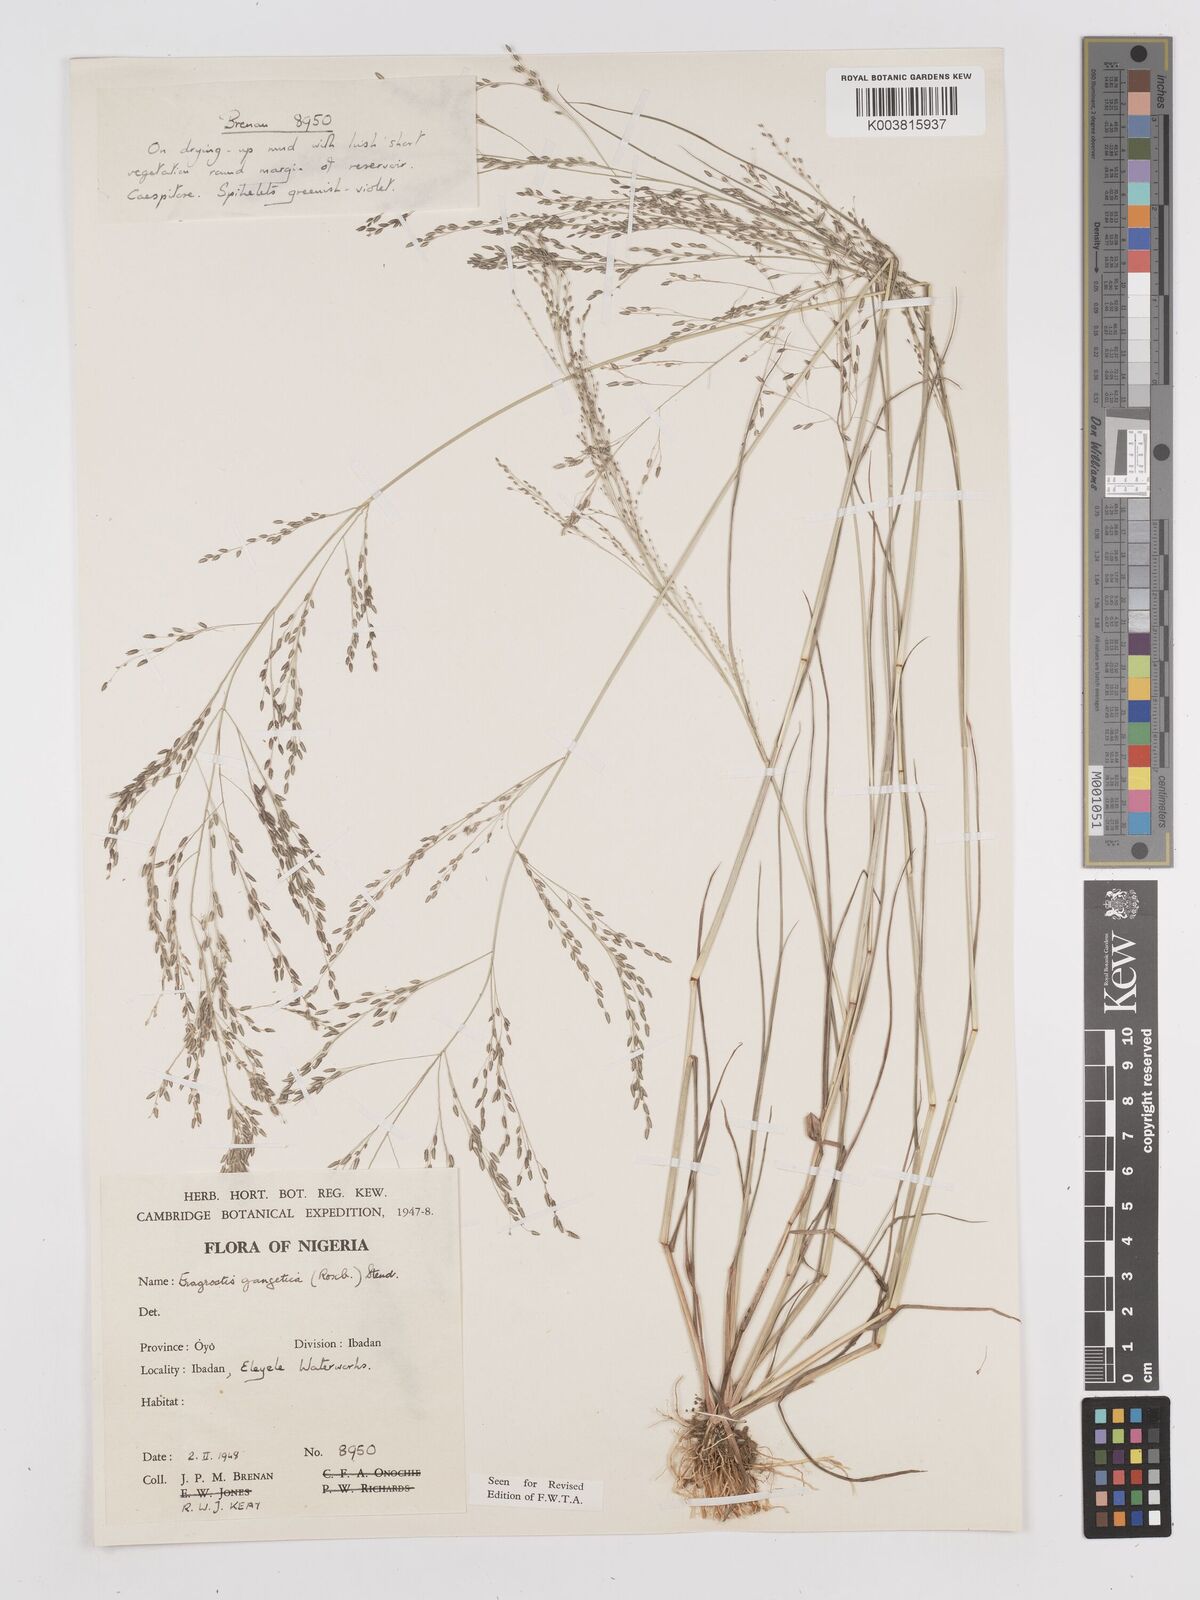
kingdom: Plantae
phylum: Tracheophyta
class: Liliopsida
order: Poales
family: Poaceae
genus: Eragrostis
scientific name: Eragrostis gangetica
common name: Slimflower lovegrass
